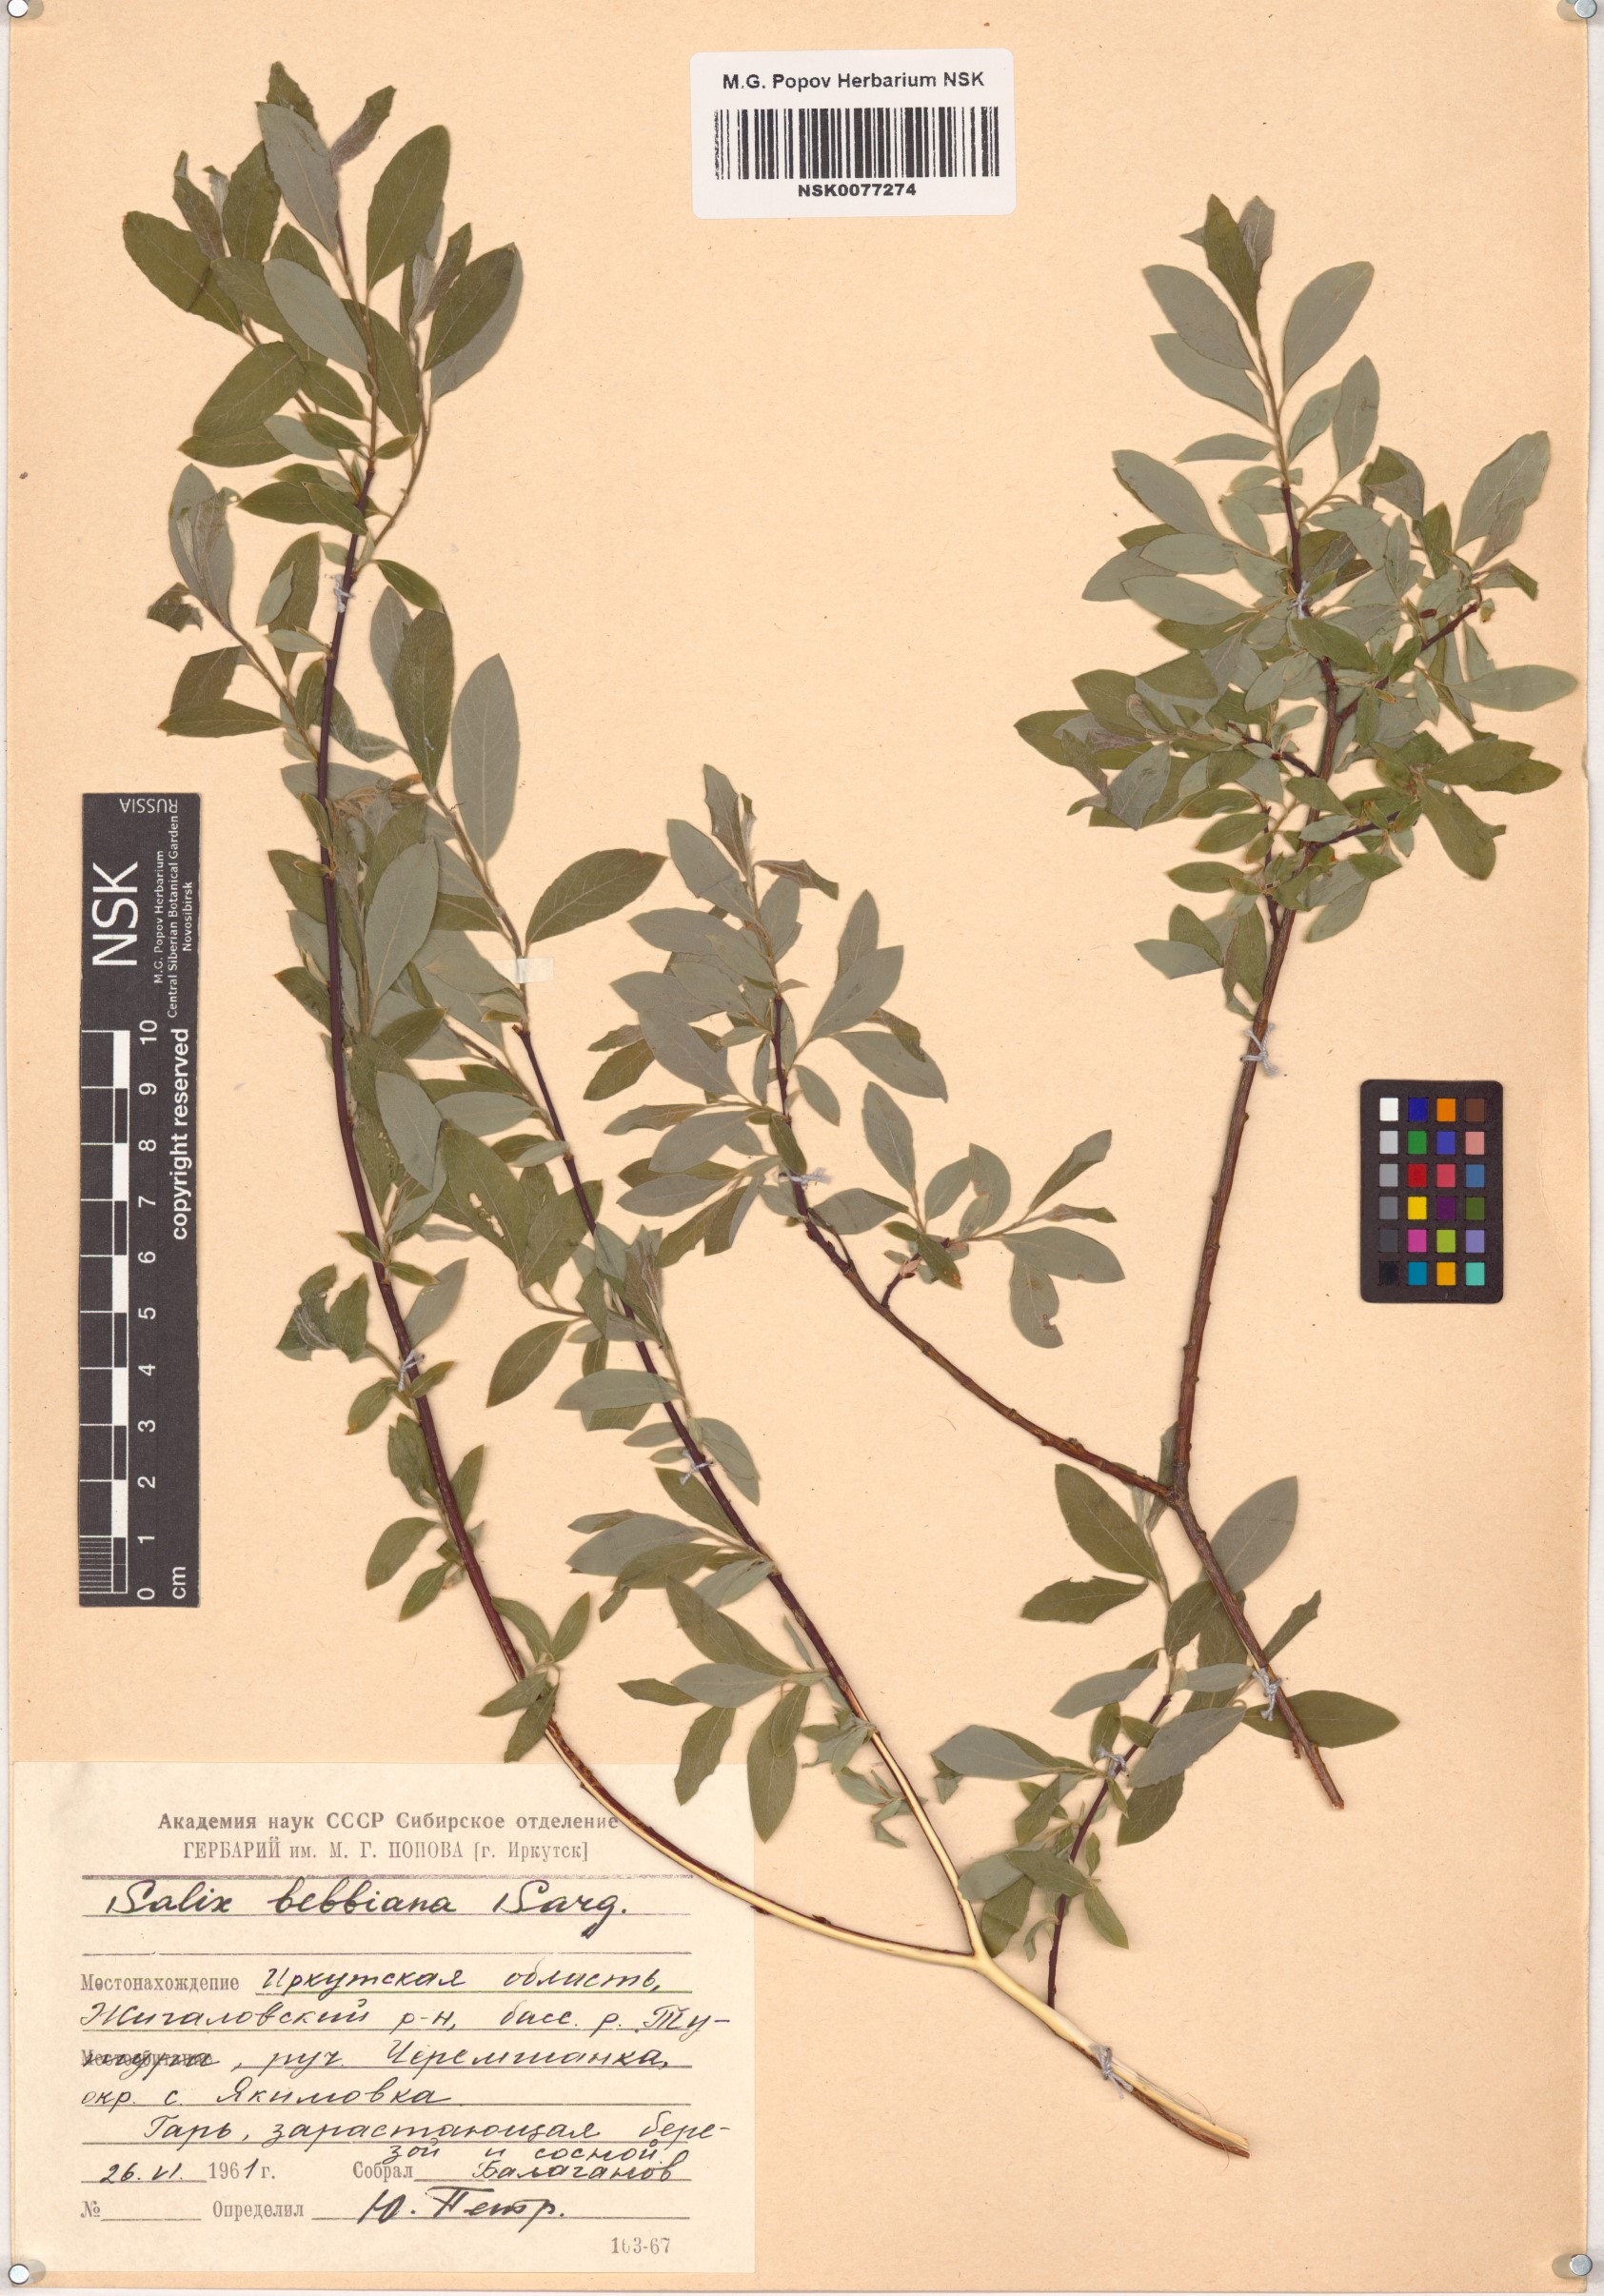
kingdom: Plantae
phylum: Tracheophyta
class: Magnoliopsida
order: Malpighiales
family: Salicaceae
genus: Salix
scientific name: Salix bebbiana
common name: Bebb's willow
